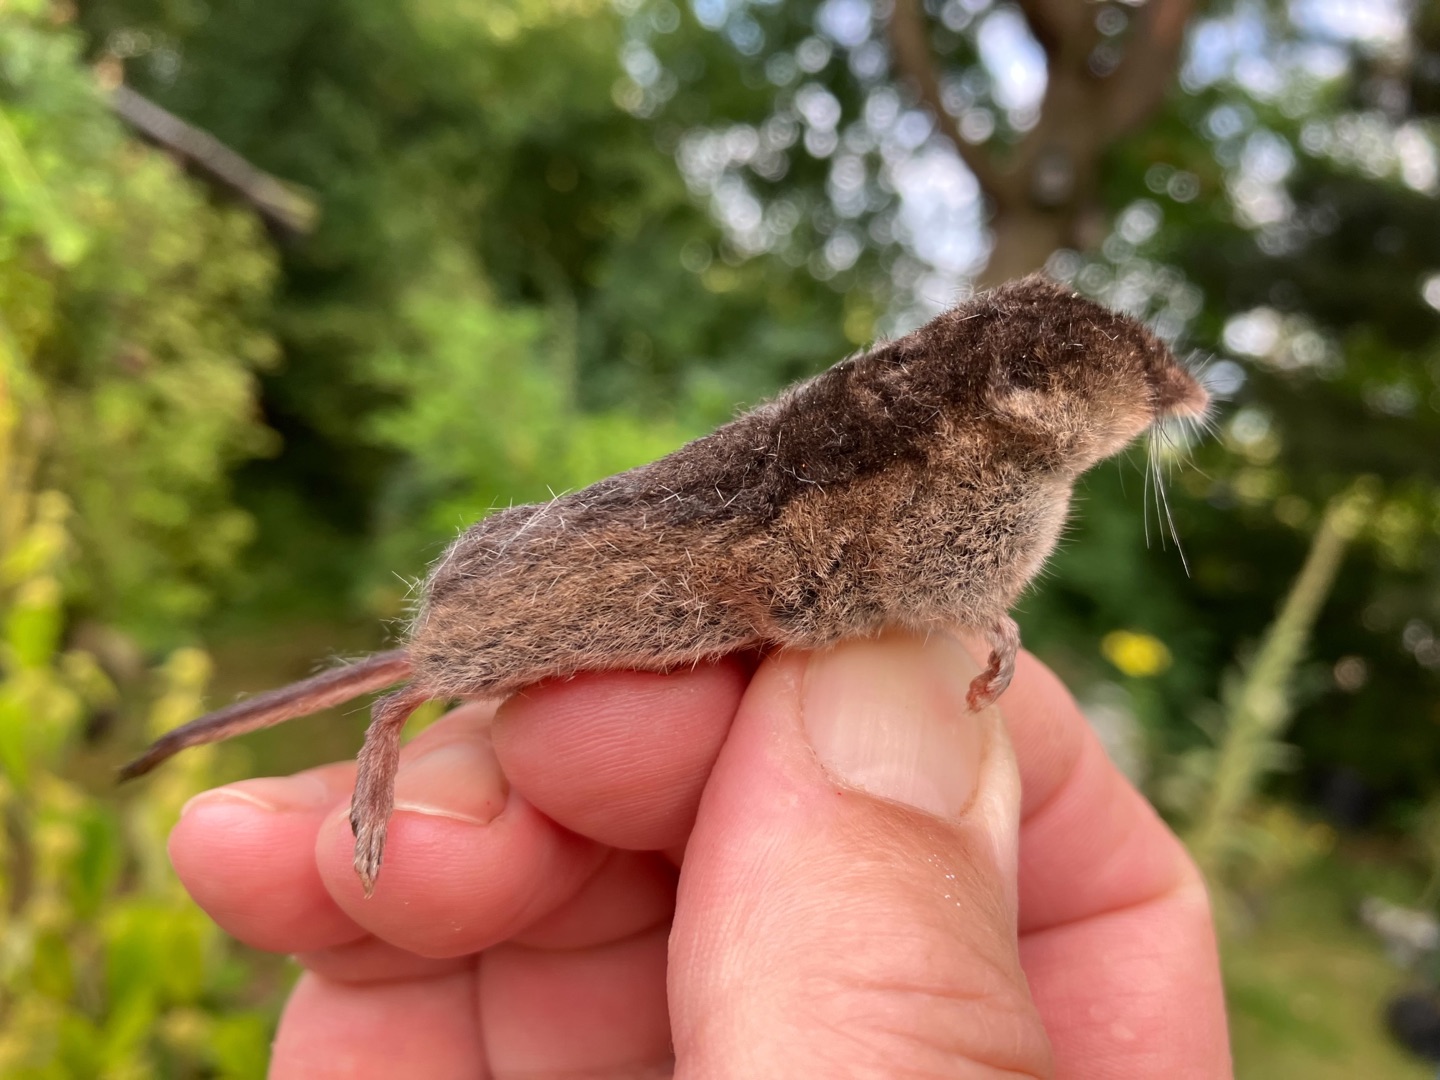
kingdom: Animalia
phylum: Chordata
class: Mammalia
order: Soricomorpha
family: Soricidae
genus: Sorex
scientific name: Sorex araneus
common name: Almindelig spidsmus
